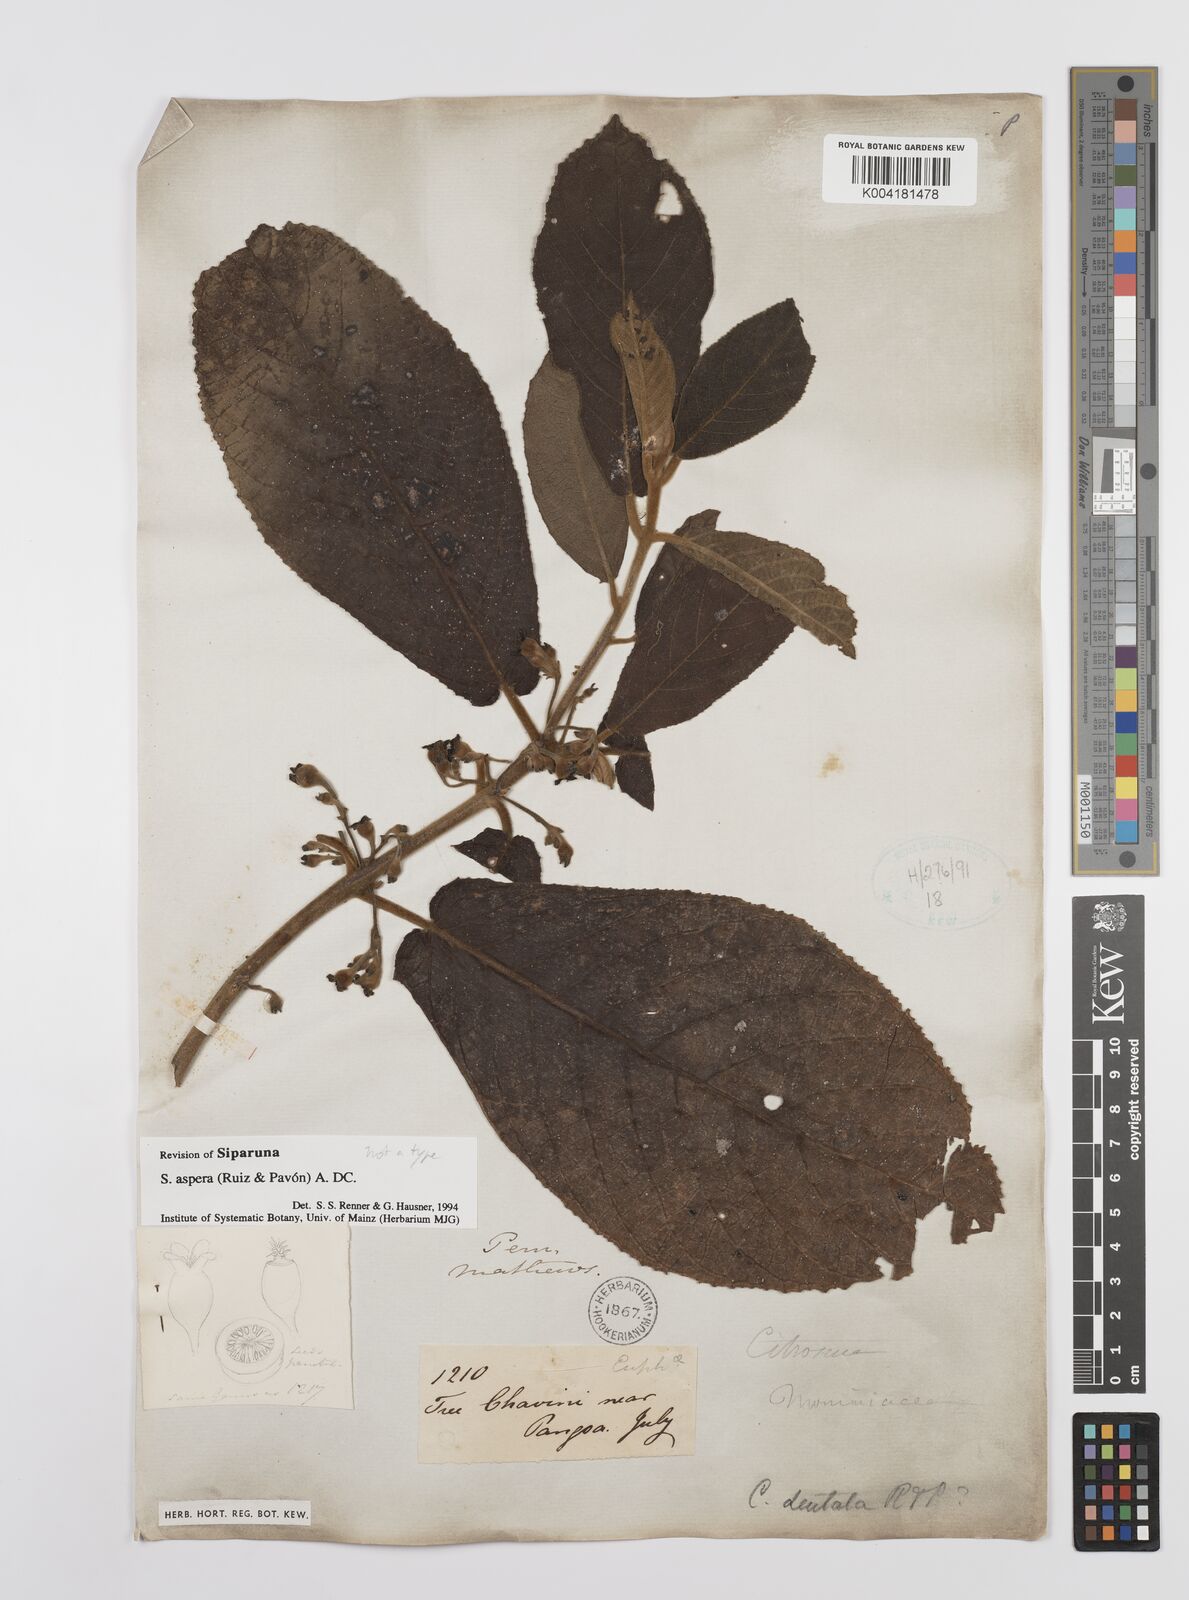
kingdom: Plantae
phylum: Tracheophyta
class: Magnoliopsida
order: Laurales
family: Siparunaceae
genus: Siparuna
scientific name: Siparuna aspera
